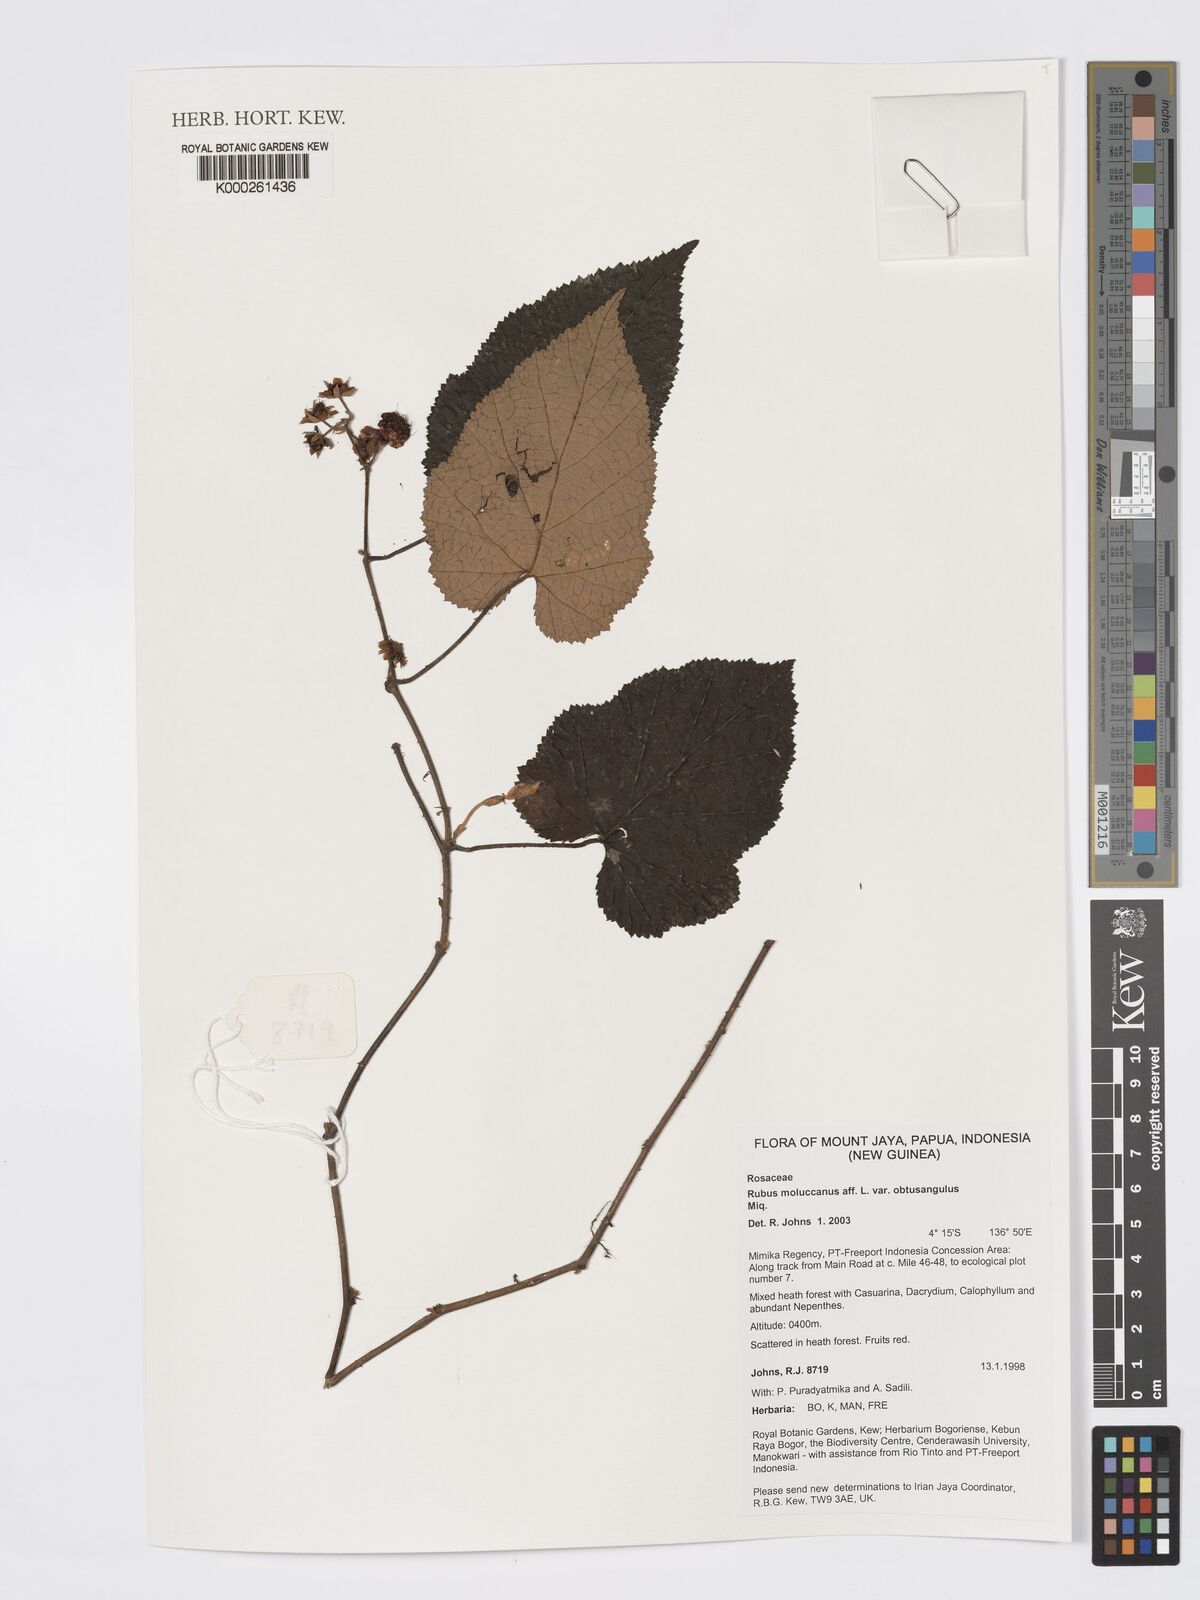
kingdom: Plantae
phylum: Tracheophyta
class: Magnoliopsida
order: Rosales
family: Rosaceae
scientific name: Rosaceae
